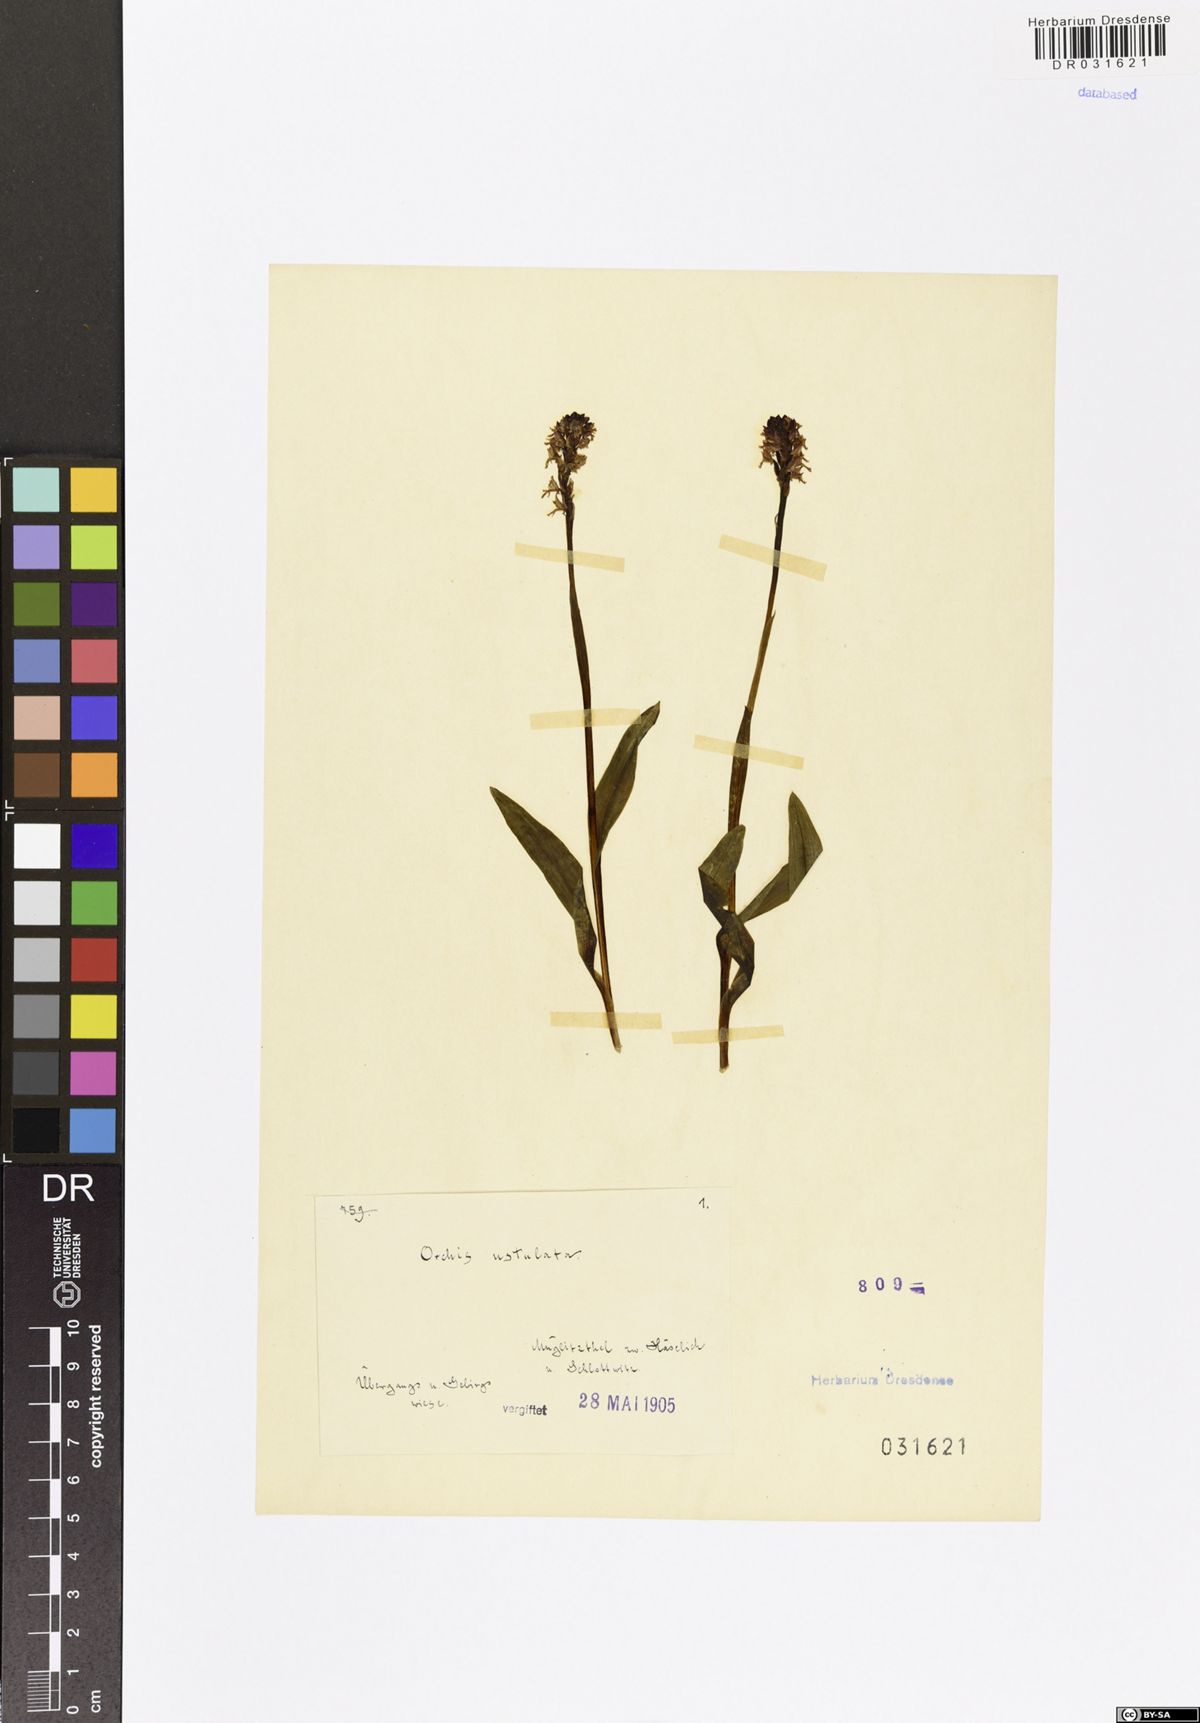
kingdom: Plantae
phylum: Tracheophyta
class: Liliopsida
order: Asparagales
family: Orchidaceae
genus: Neotinea
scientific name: Neotinea ustulata
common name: Burnt orchid
